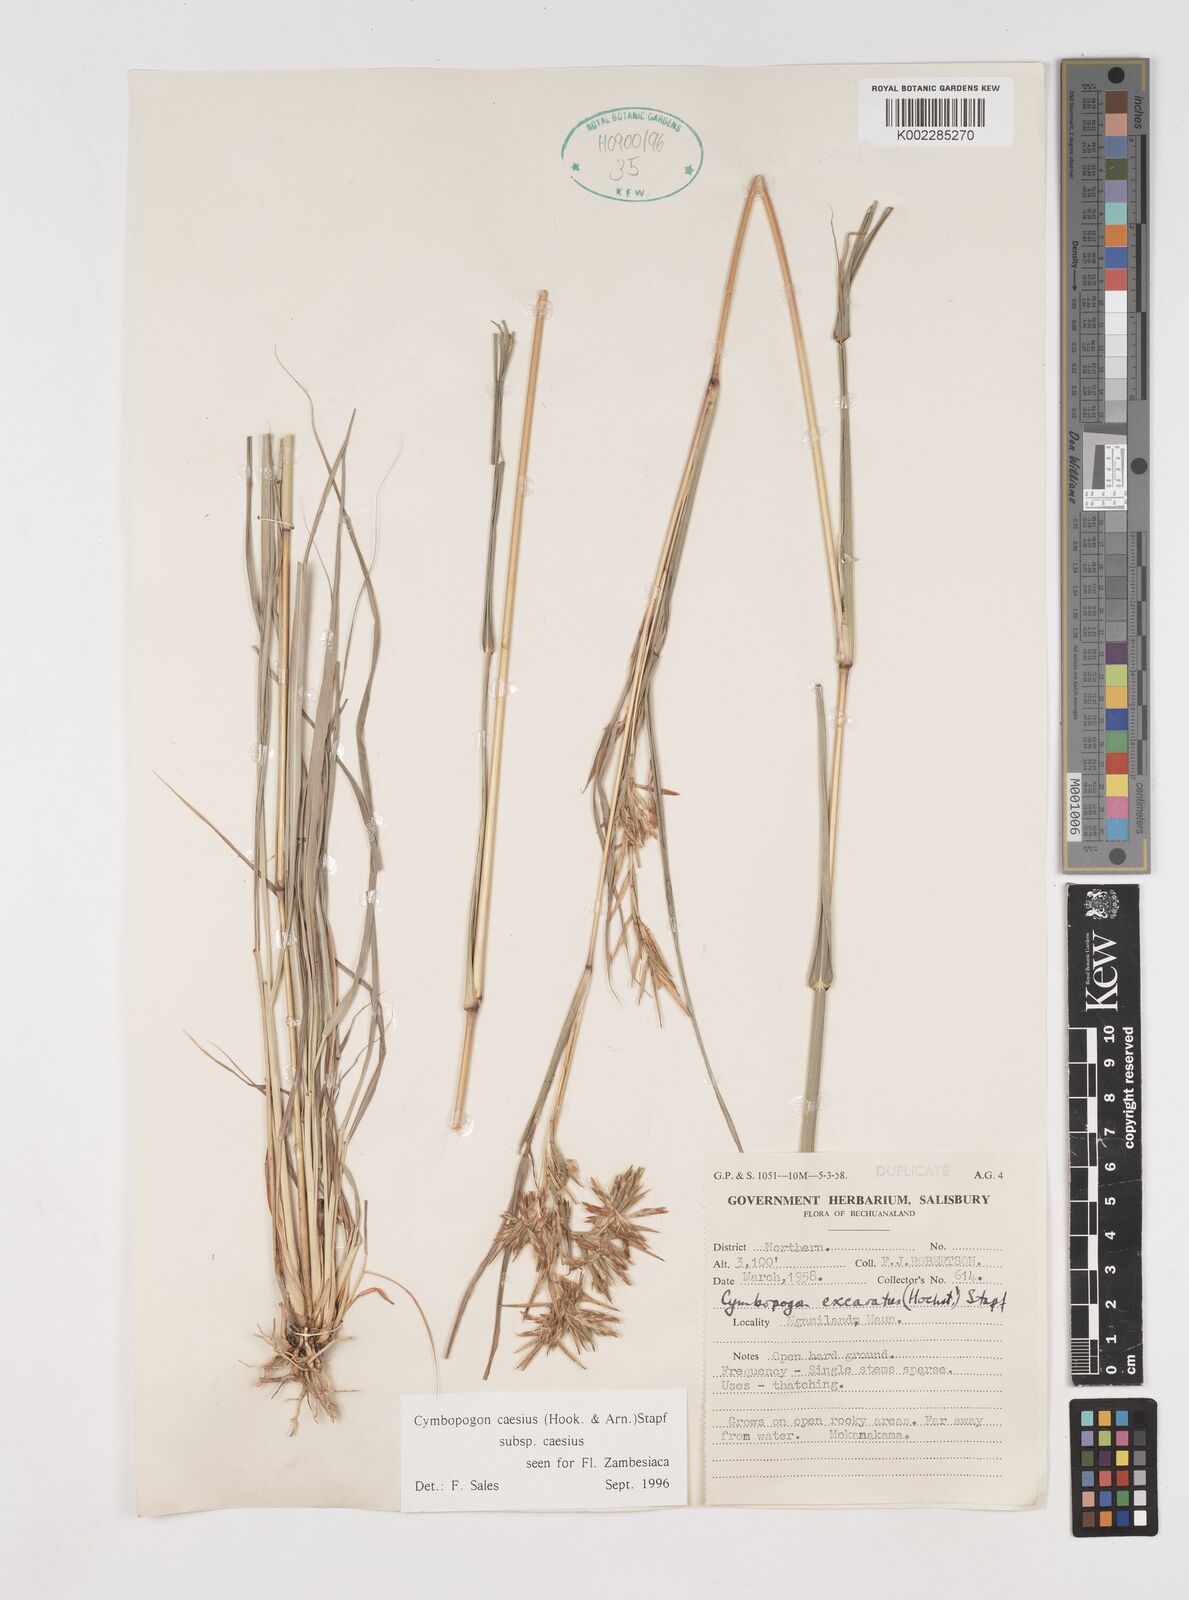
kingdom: Plantae
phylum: Tracheophyta
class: Liliopsida
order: Poales
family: Poaceae
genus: Cymbopogon
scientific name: Cymbopogon caesius
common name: Kachi grass
